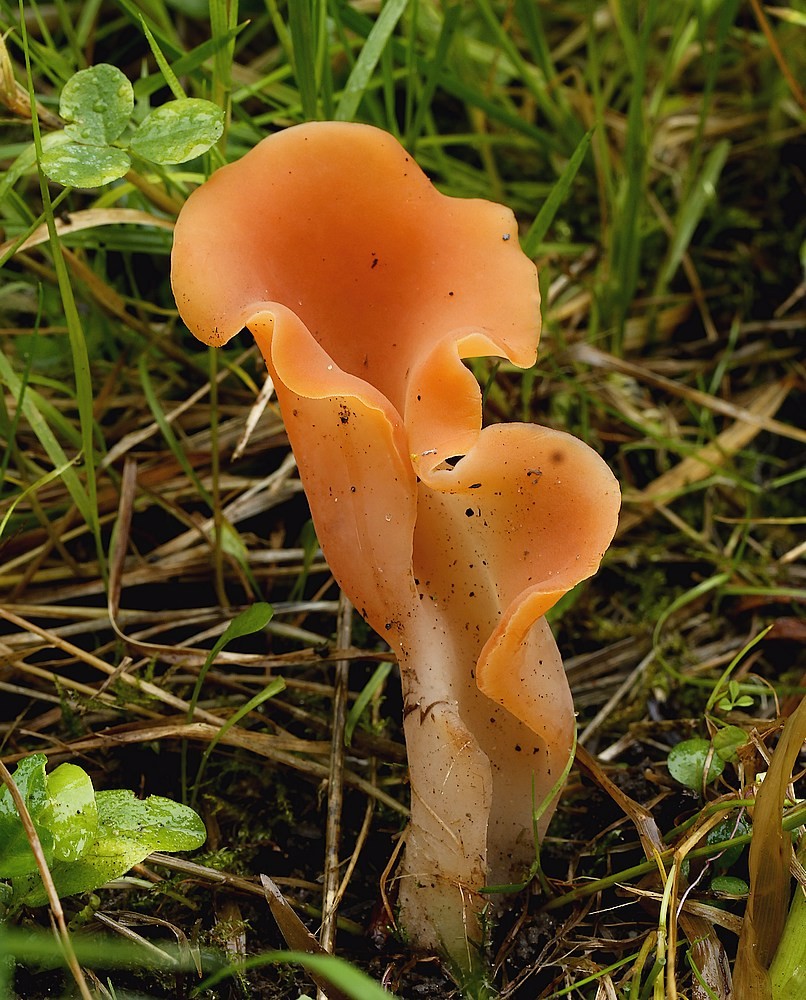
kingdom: Fungi
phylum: Basidiomycota
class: Agaricomycetes
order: Auriculariales
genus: Guepinia
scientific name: Guepinia helvelloides
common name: bævretunge
